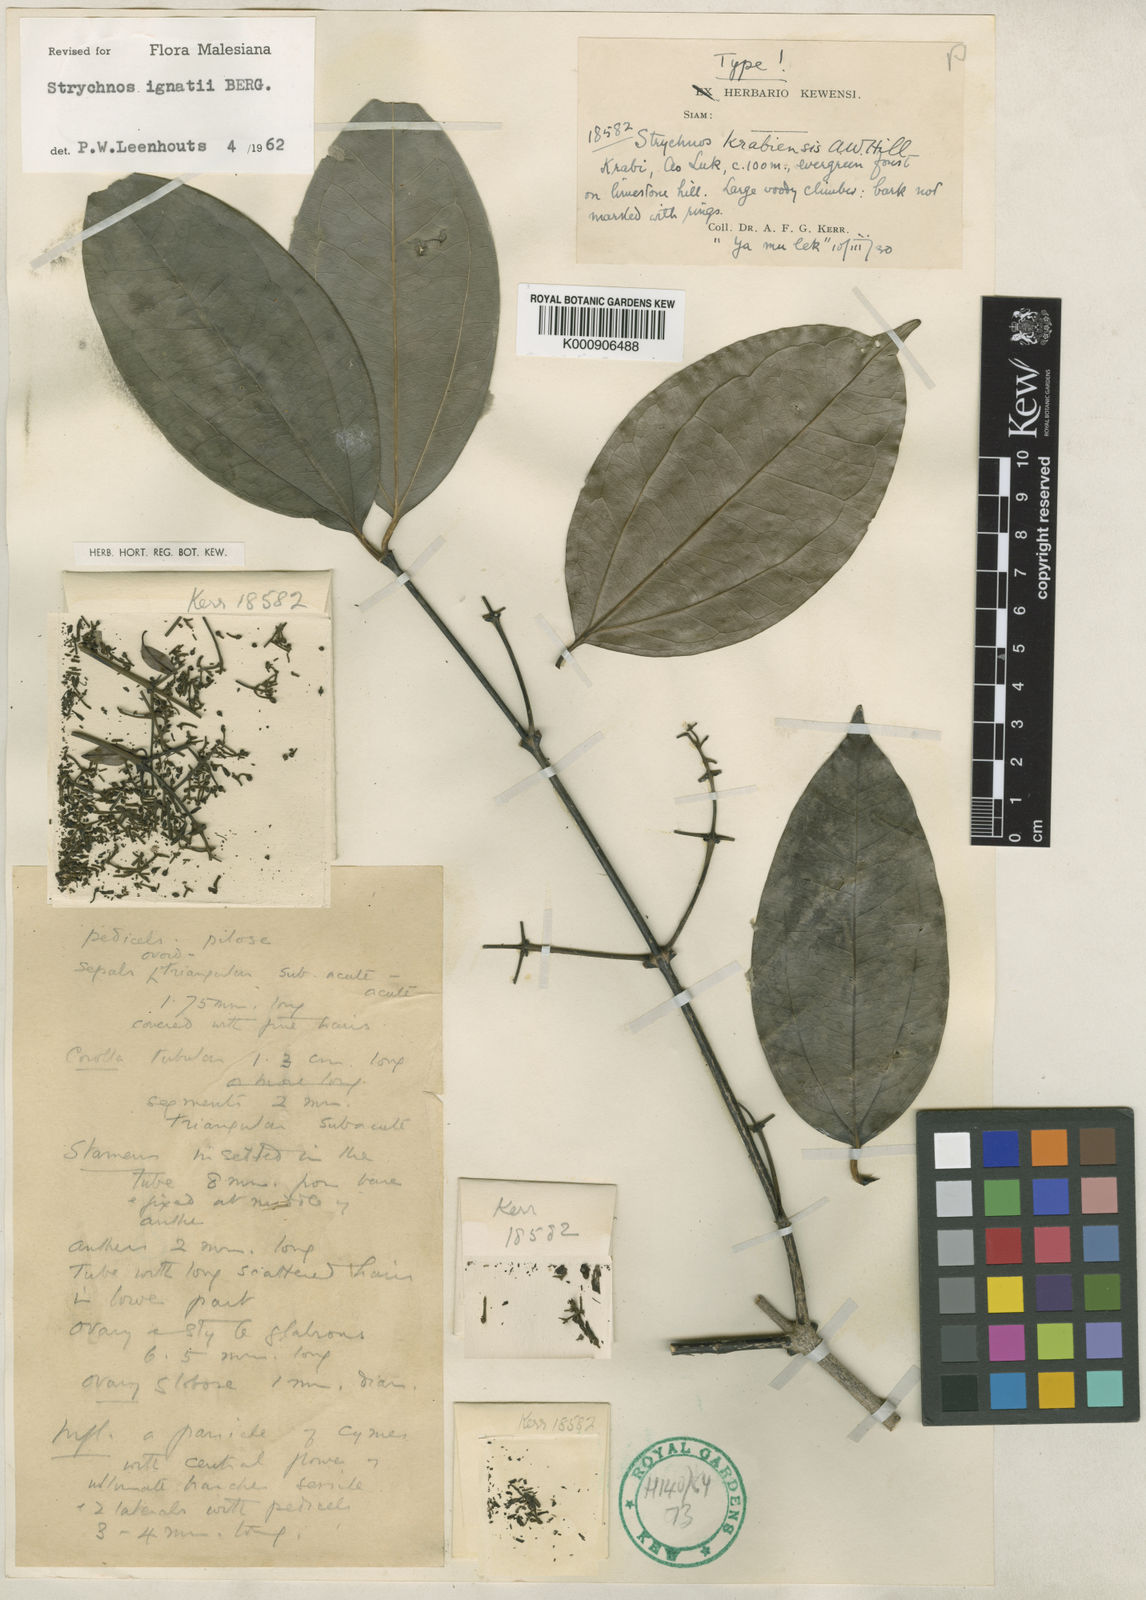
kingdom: Plantae
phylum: Tracheophyta
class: Magnoliopsida
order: Gentianales
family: Loganiaceae
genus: Strychnos
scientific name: Strychnos ignatii
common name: Ignatius-bean
